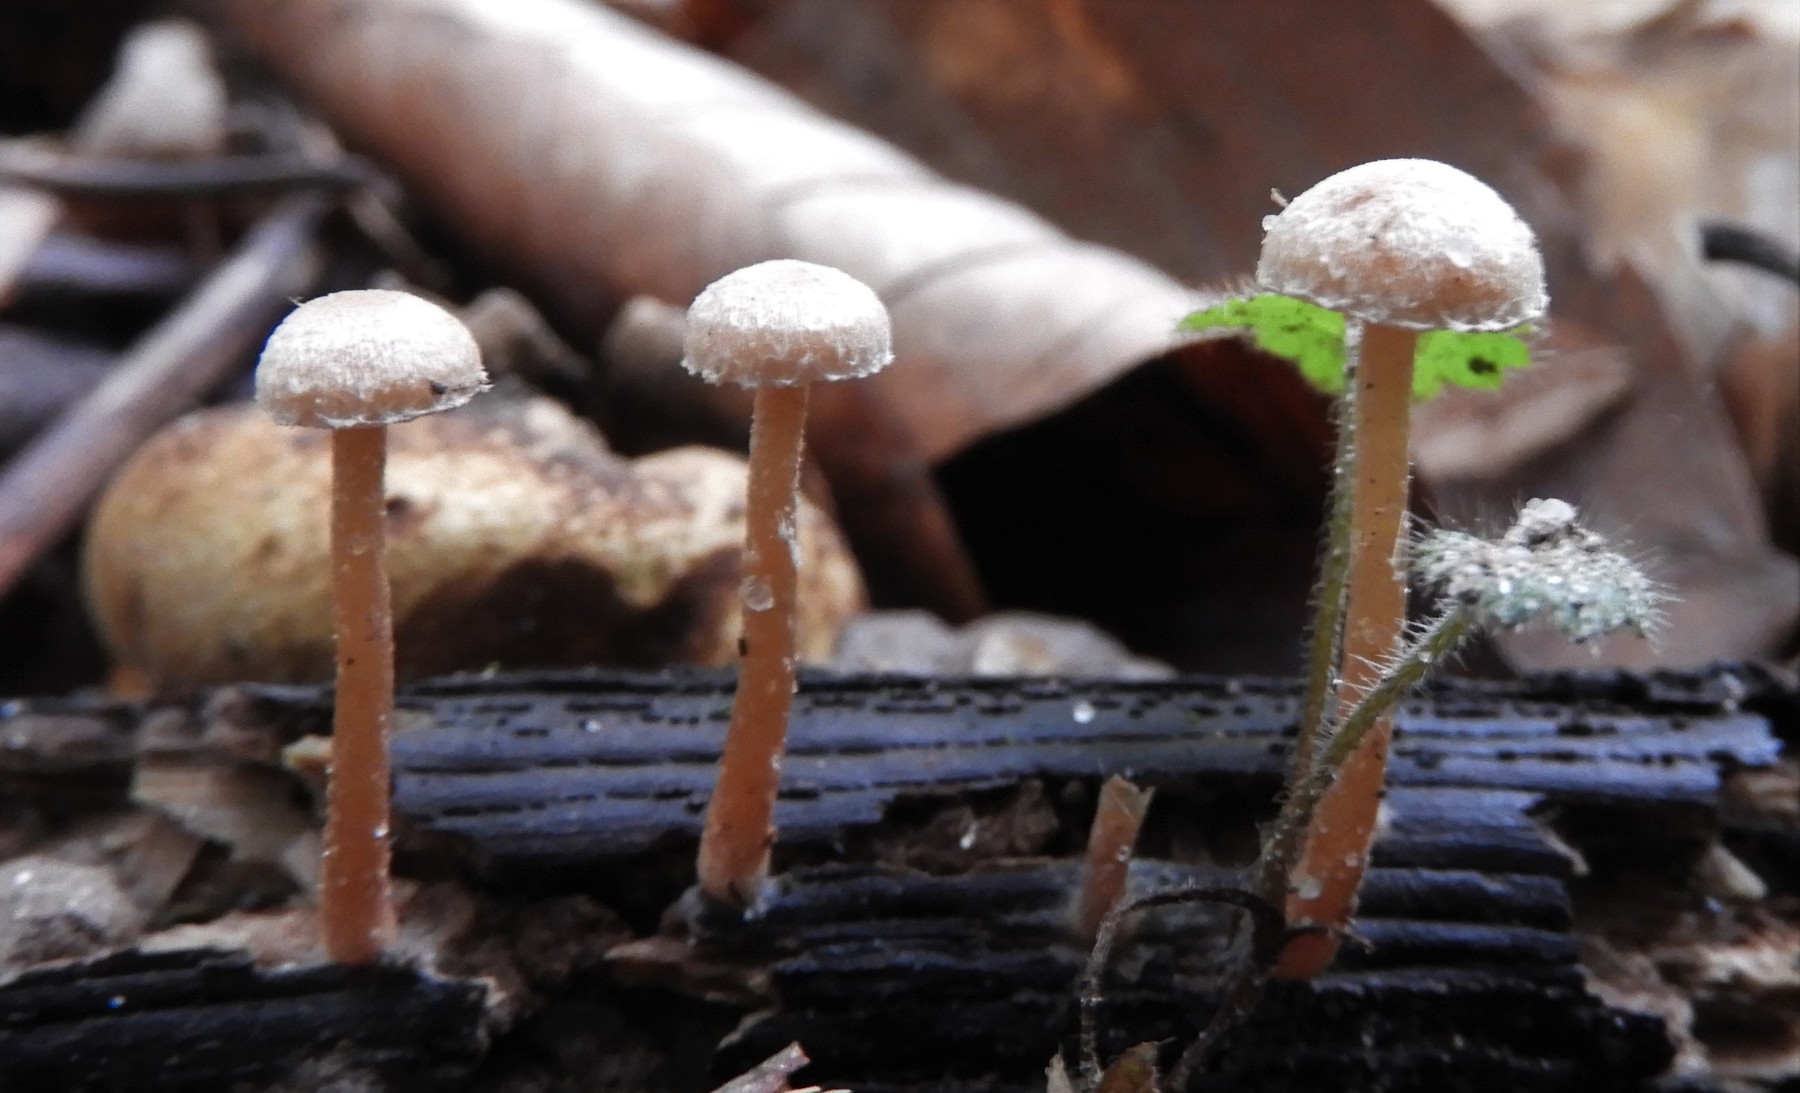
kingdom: Fungi
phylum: Basidiomycota
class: Agaricomycetes
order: Agaricales
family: Tubariaceae
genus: Tubaria
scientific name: Tubaria conspersa
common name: bleg fnughat
